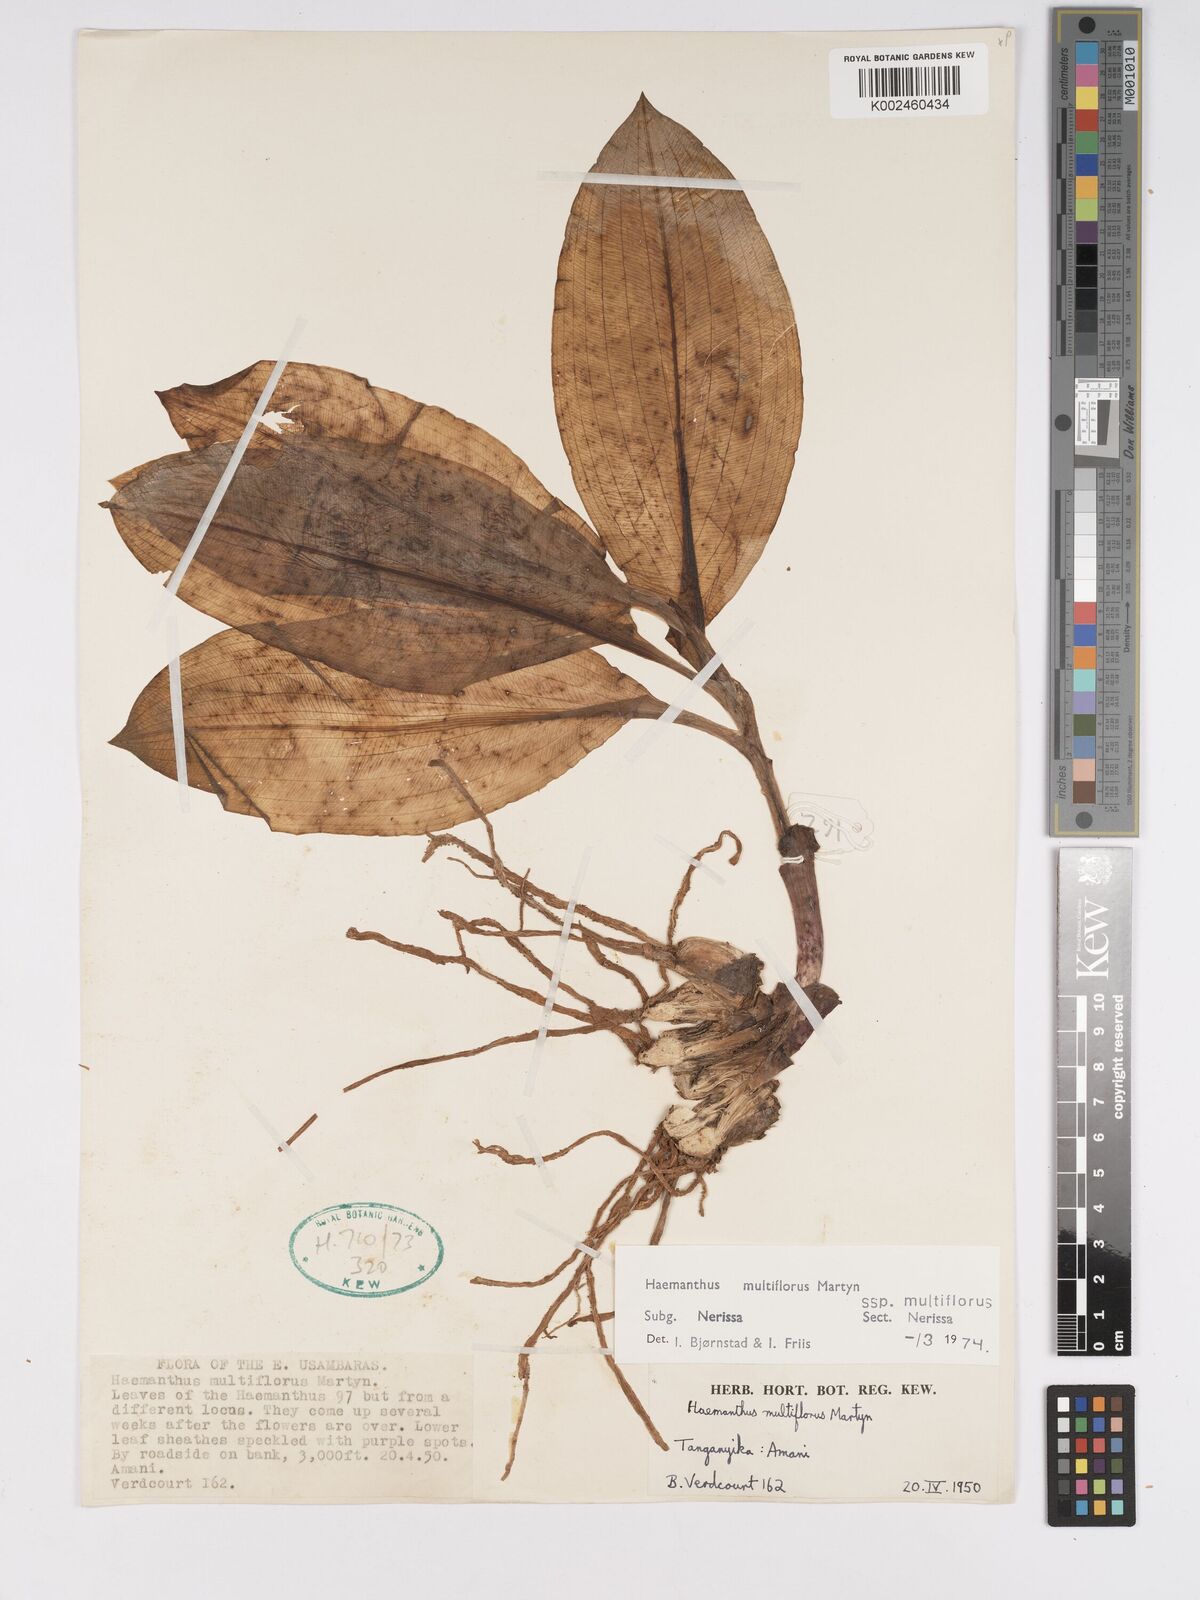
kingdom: Plantae
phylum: Tracheophyta
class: Liliopsida
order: Asparagales
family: Amaryllidaceae
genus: Scadoxus
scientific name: Scadoxus multiflorus
